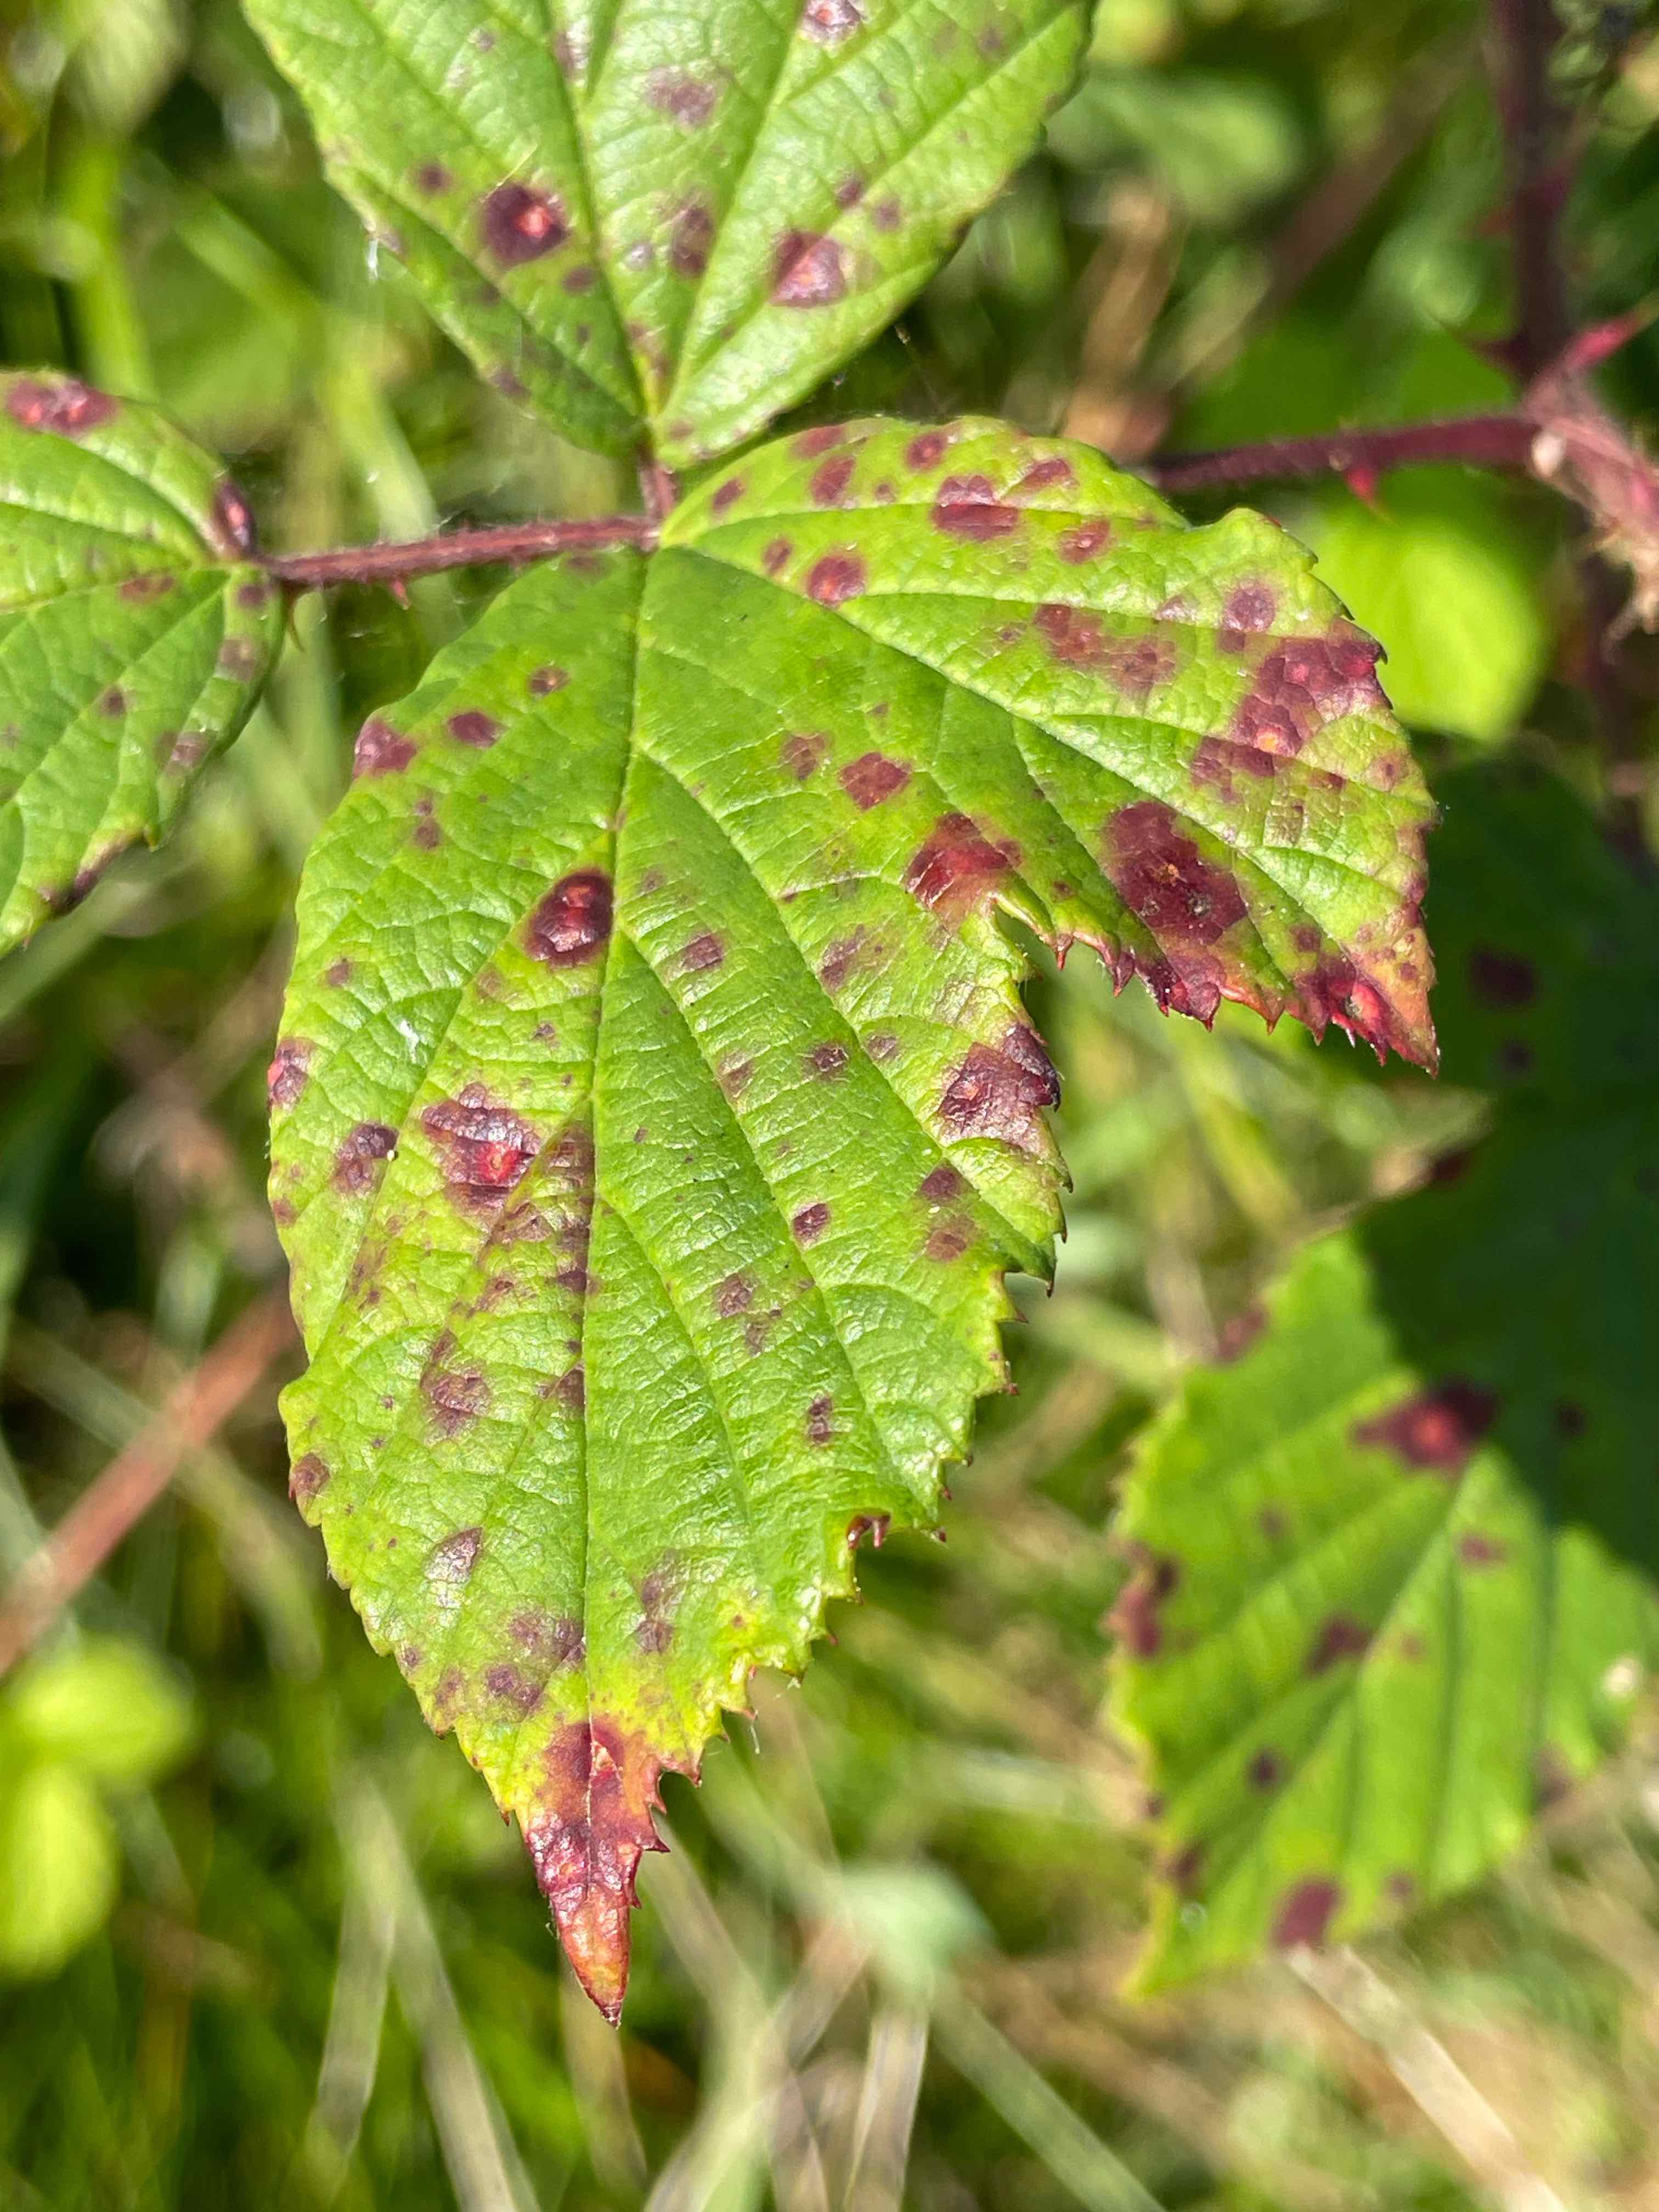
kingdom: Fungi
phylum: Basidiomycota
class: Pucciniomycetes
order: Pucciniales
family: Phragmidiaceae
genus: Phragmidium
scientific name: Phragmidium violaceum
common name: violet flercellerust
